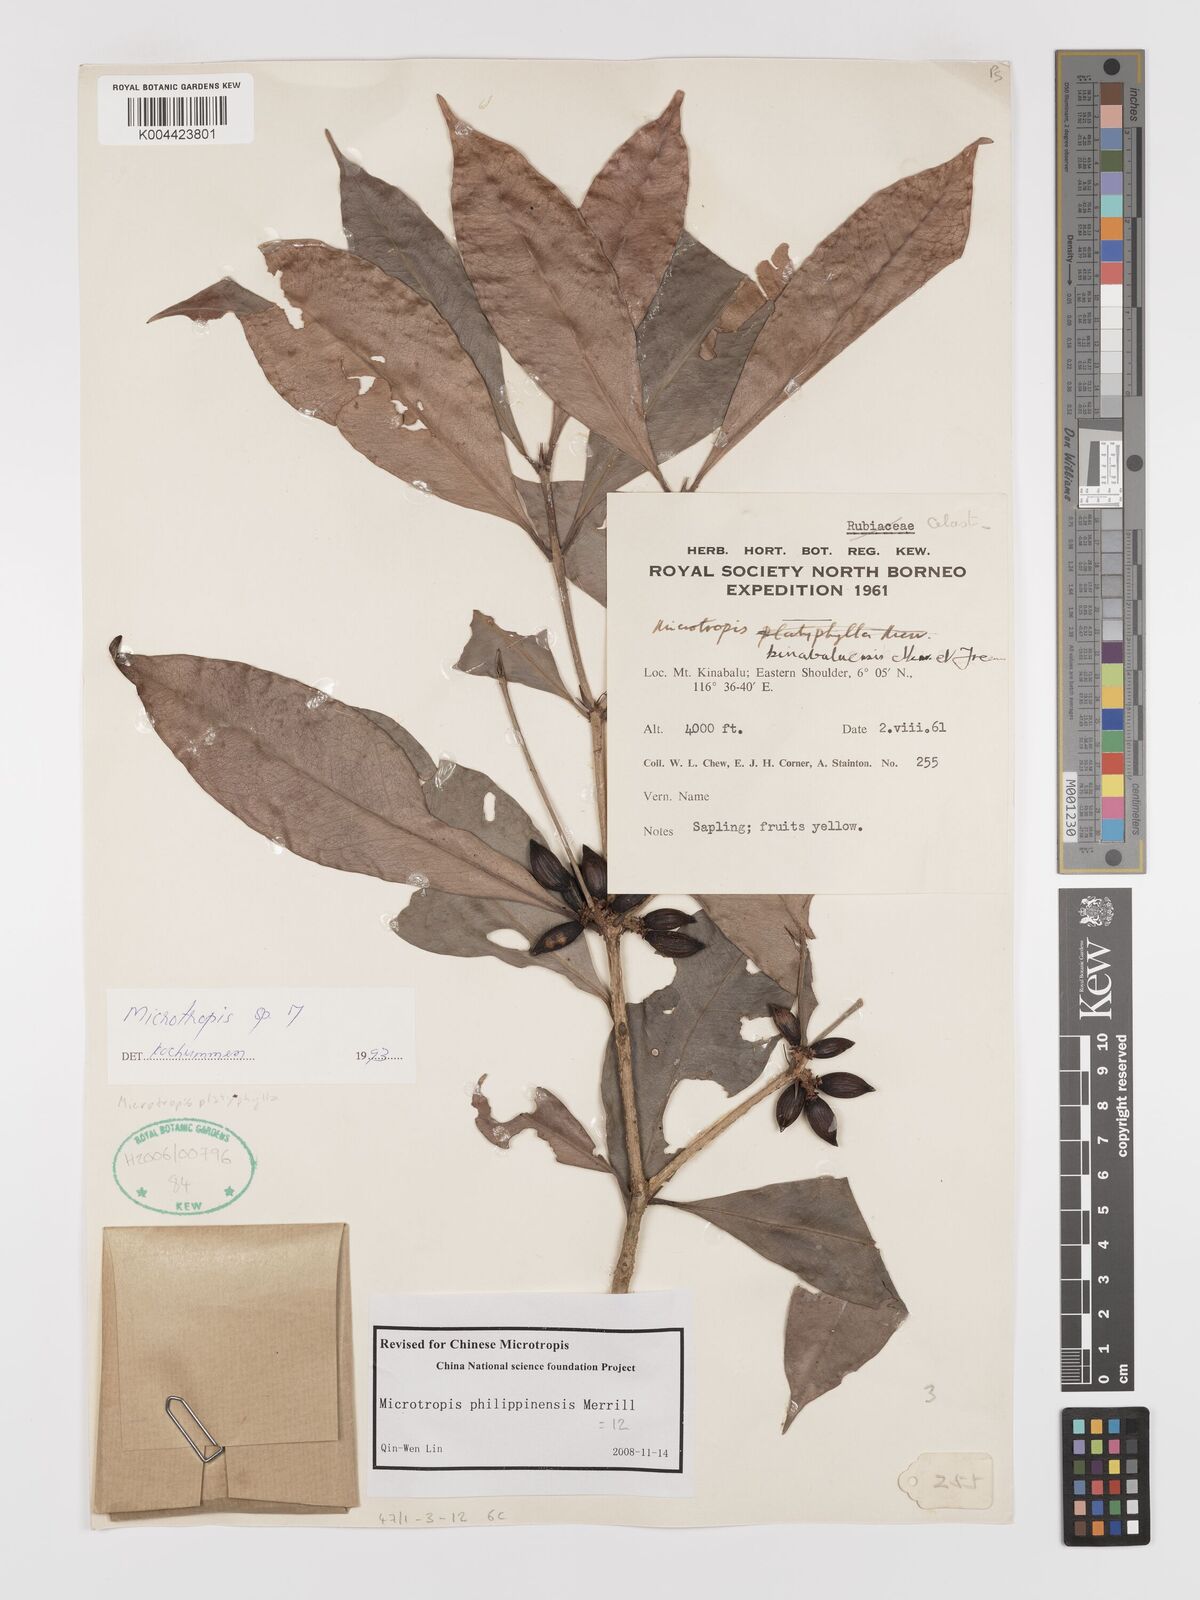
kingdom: Plantae
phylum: Tracheophyta
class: Magnoliopsida
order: Celastrales
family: Celastraceae
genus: Microtropis
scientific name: Microtropis platyphylla
